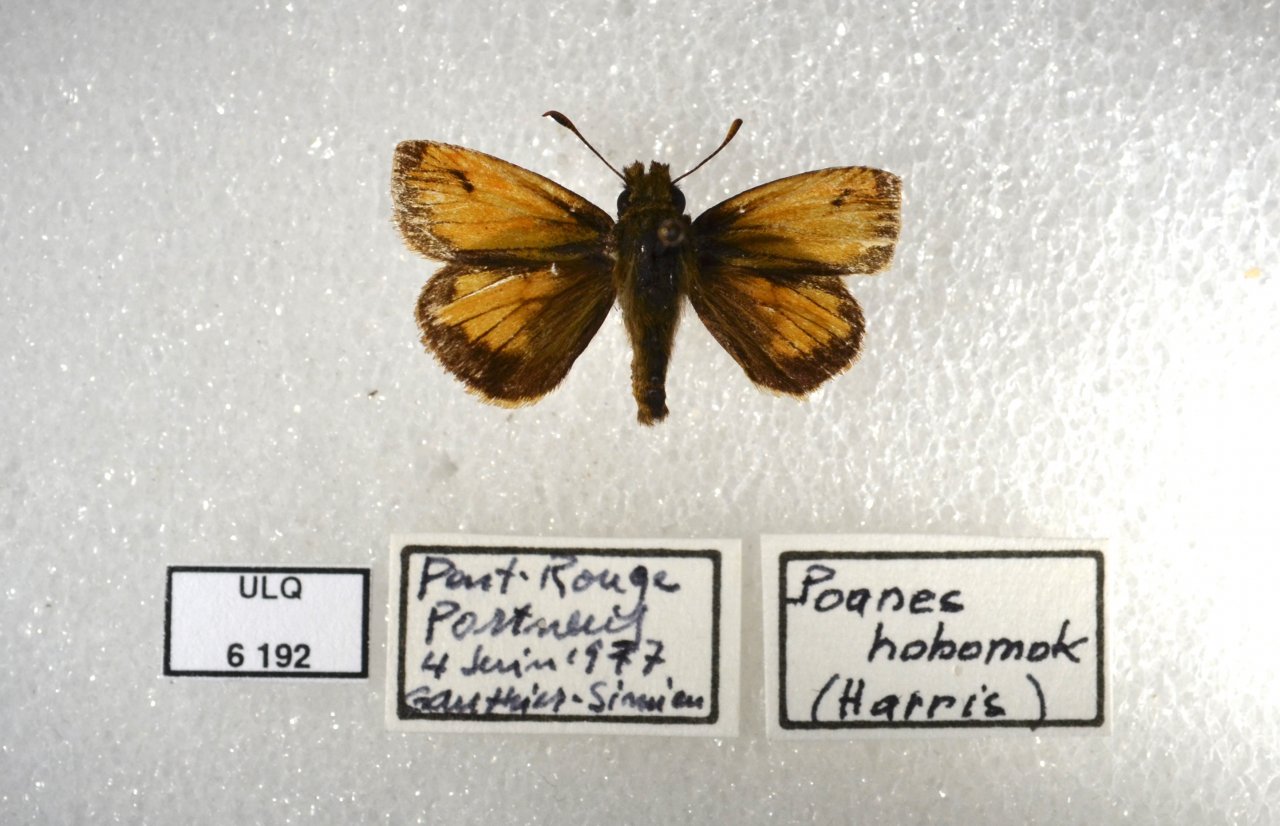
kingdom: Animalia
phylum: Arthropoda
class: Insecta
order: Lepidoptera
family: Hesperiidae
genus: Lon
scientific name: Lon hobomok
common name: Hobomok Skipper
